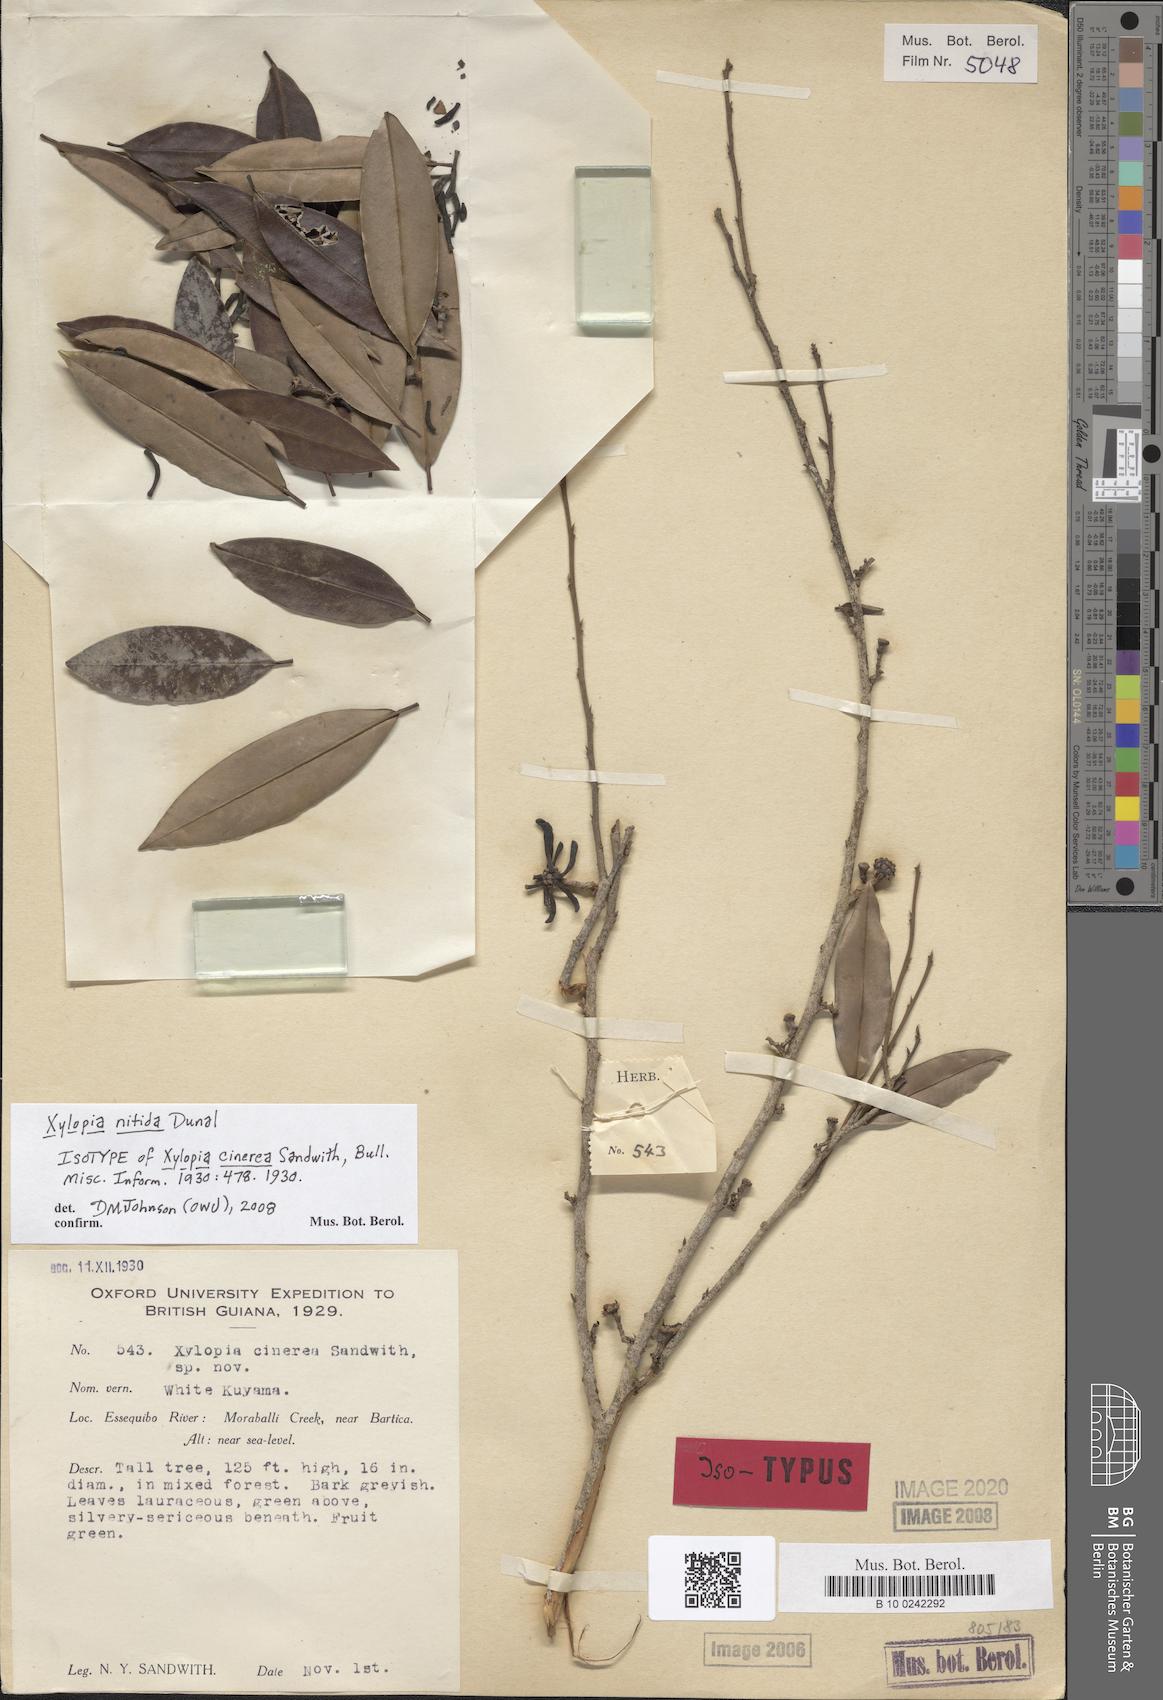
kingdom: Plantae
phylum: Tracheophyta
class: Magnoliopsida
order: Magnoliales
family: Annonaceae
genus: Xylopia
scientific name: Xylopia nitida
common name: White kuyama
